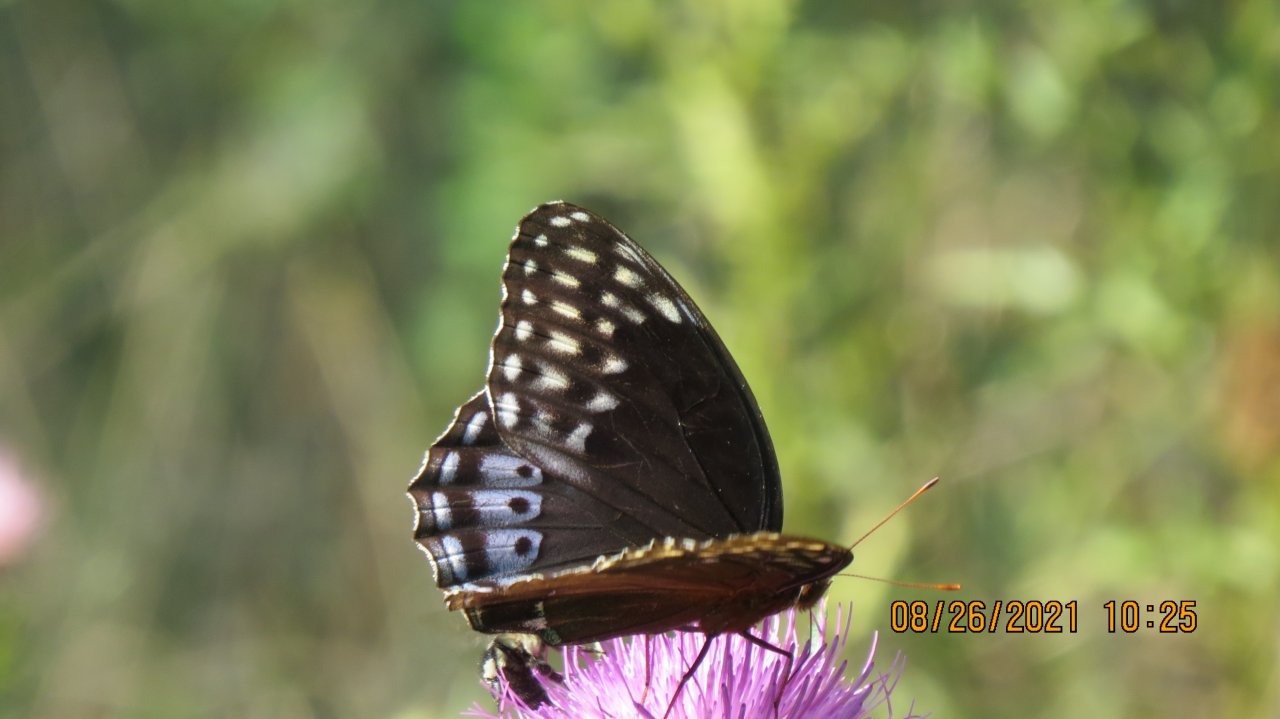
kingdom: Animalia
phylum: Arthropoda
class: Insecta
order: Lepidoptera
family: Nymphalidae
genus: Speyeria
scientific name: Speyeria diana
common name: Diana Fritillary
